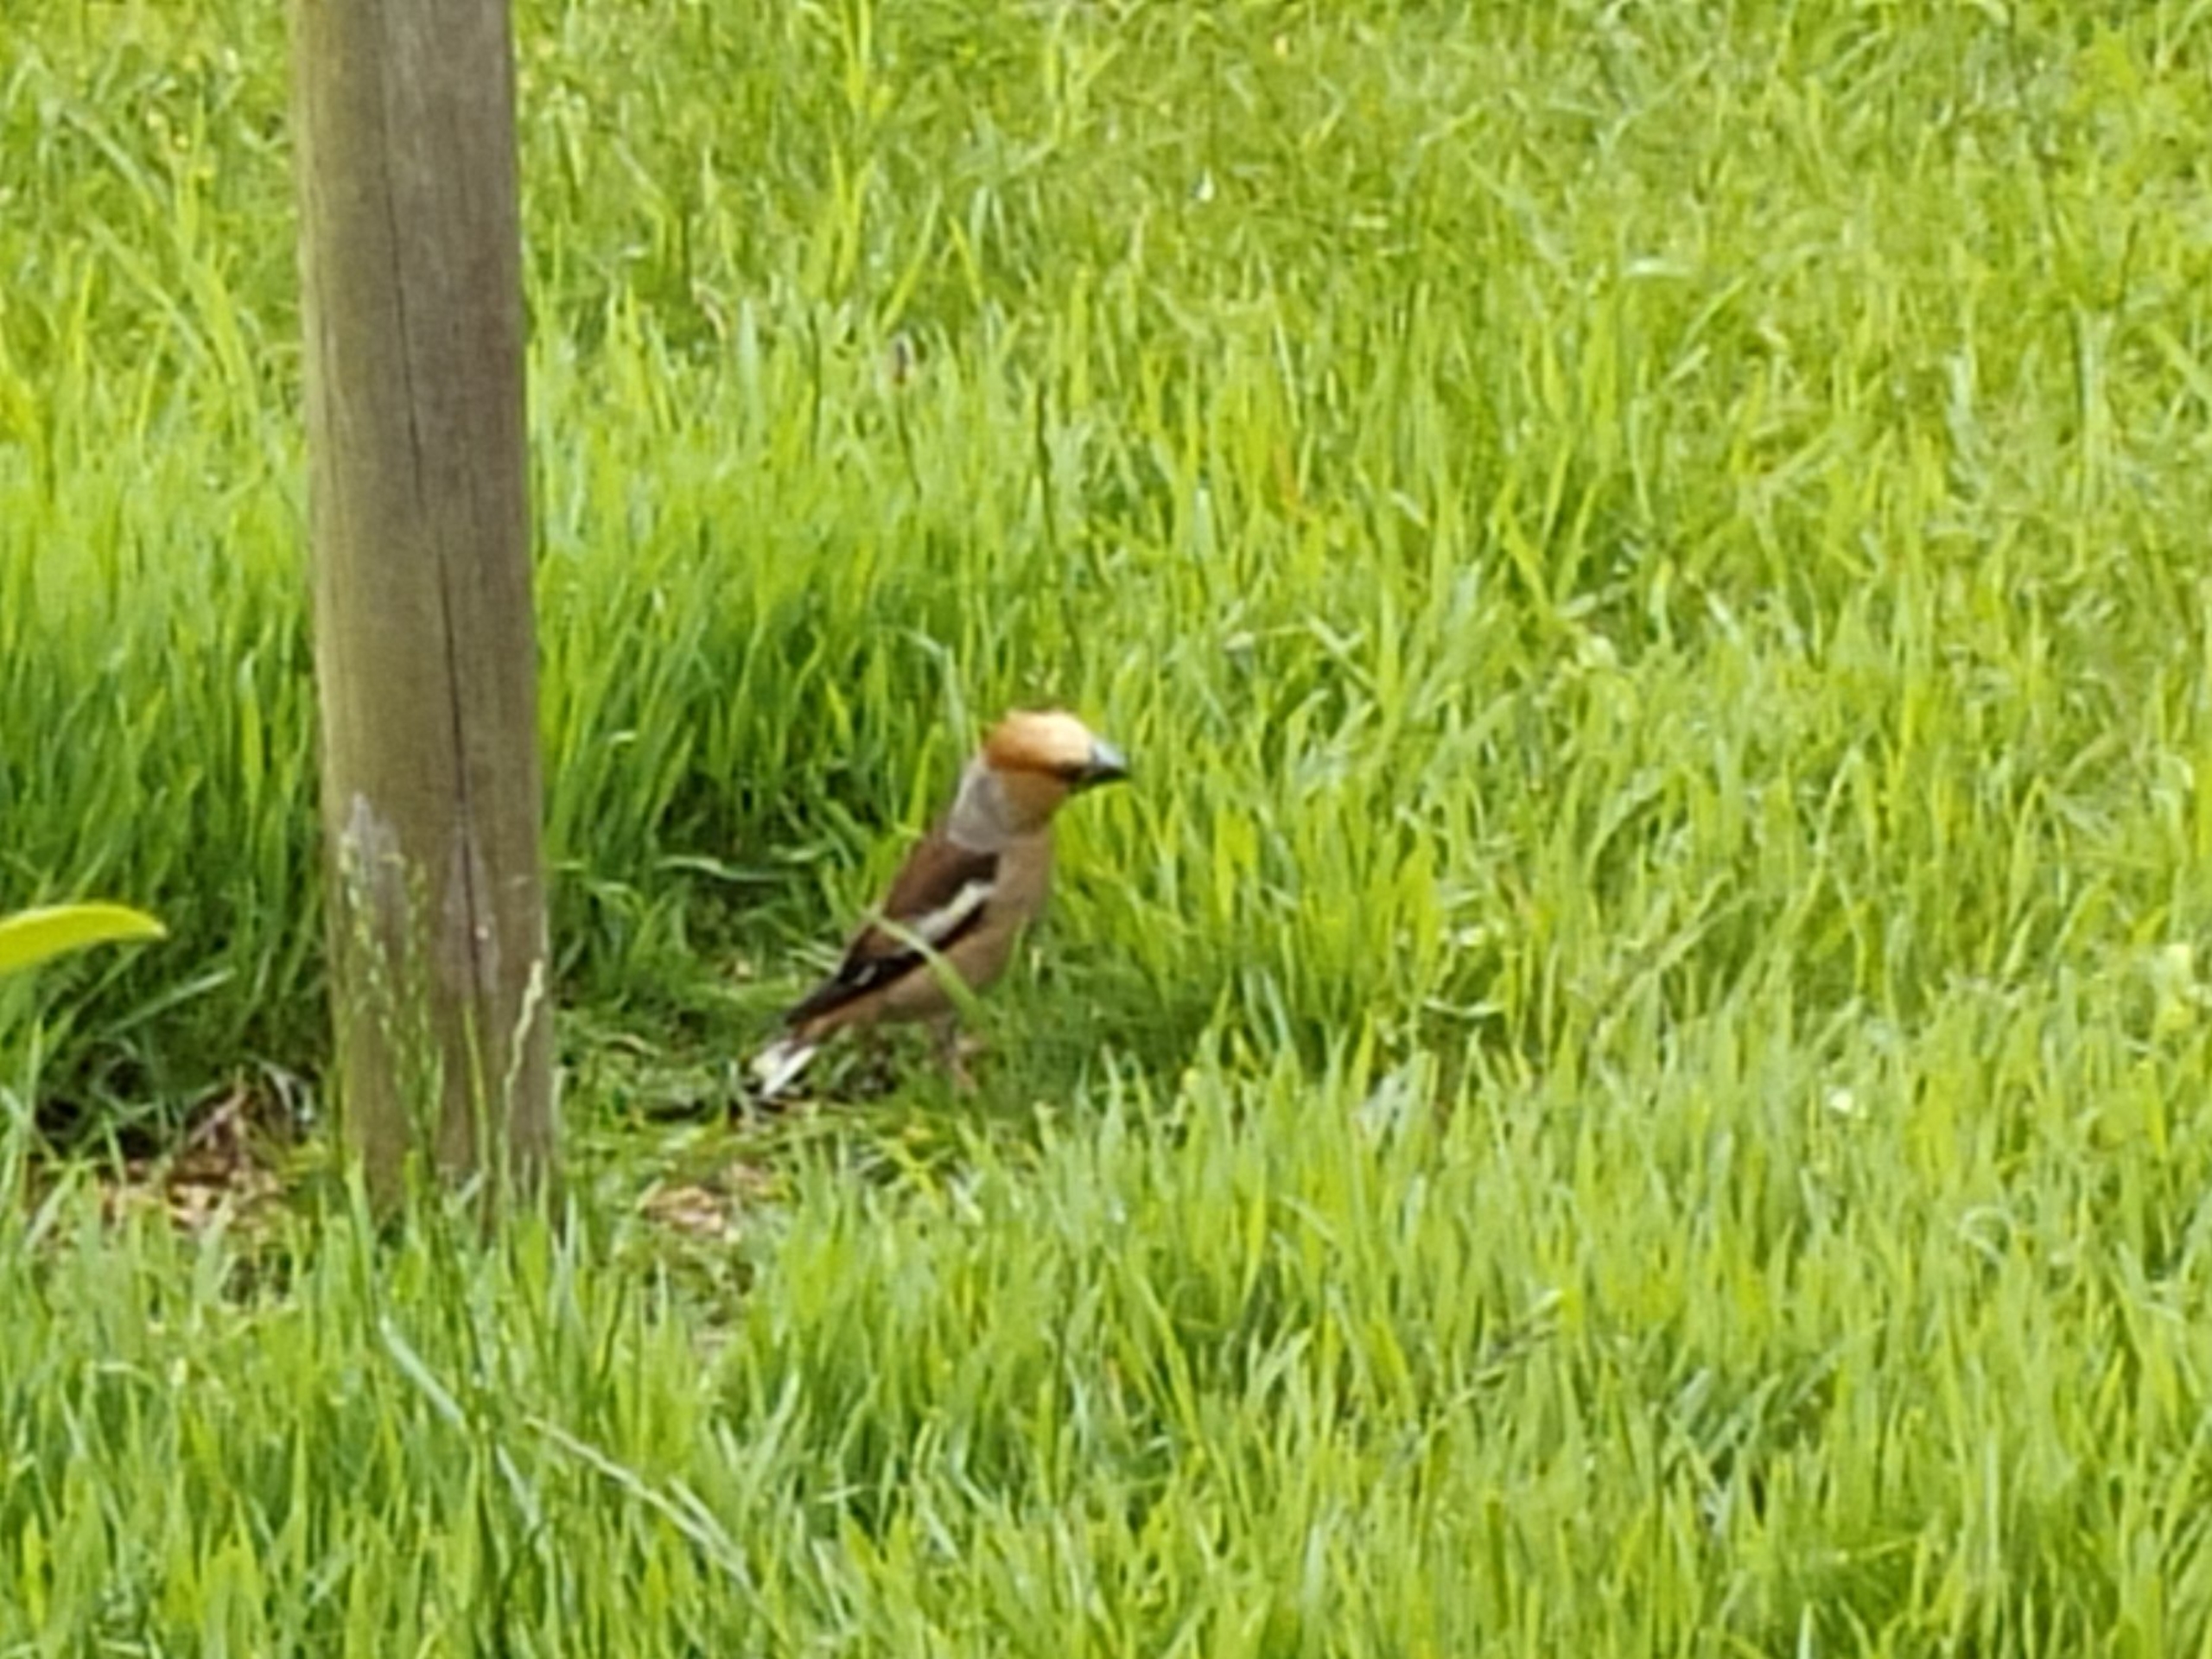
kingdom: Animalia
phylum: Chordata
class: Aves
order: Passeriformes
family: Fringillidae
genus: Coccothraustes
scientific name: Coccothraustes coccothraustes
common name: Kernebider
